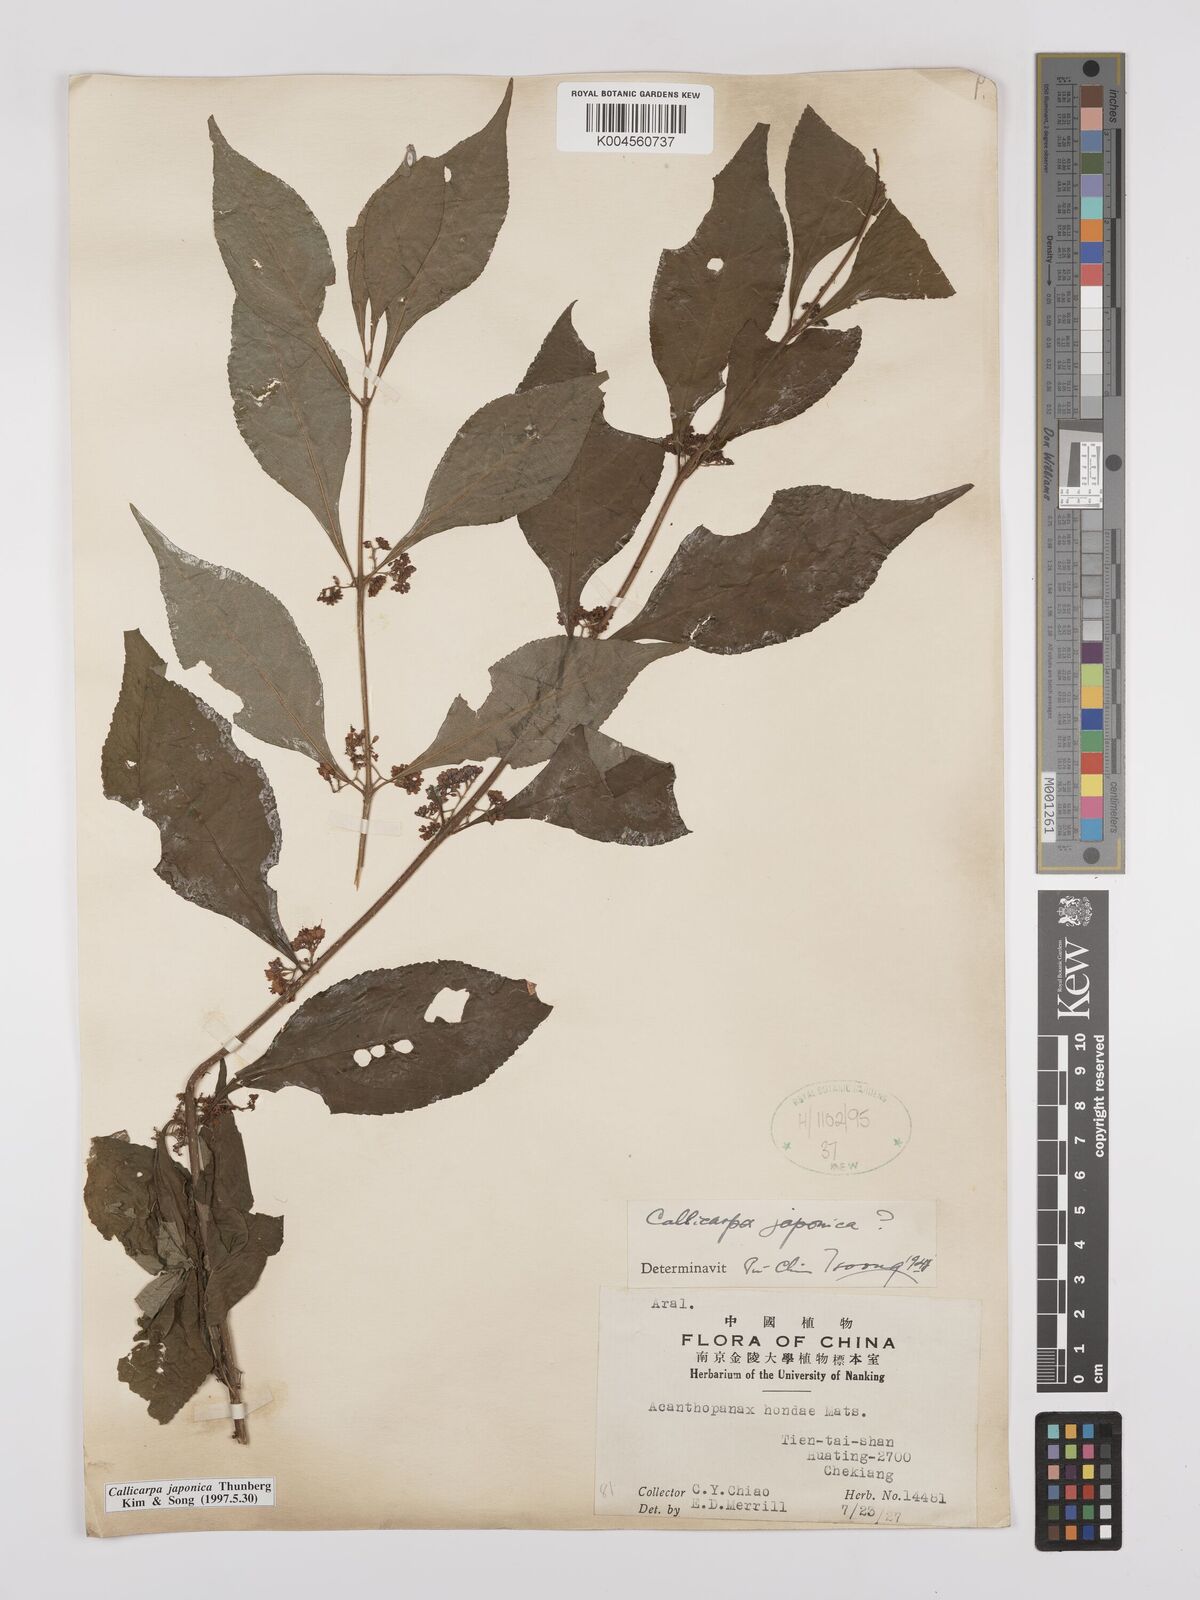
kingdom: Plantae
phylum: Tracheophyta
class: Magnoliopsida
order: Lamiales
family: Lamiaceae
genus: Callicarpa
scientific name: Callicarpa japonica
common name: Japanese beauty-berry
